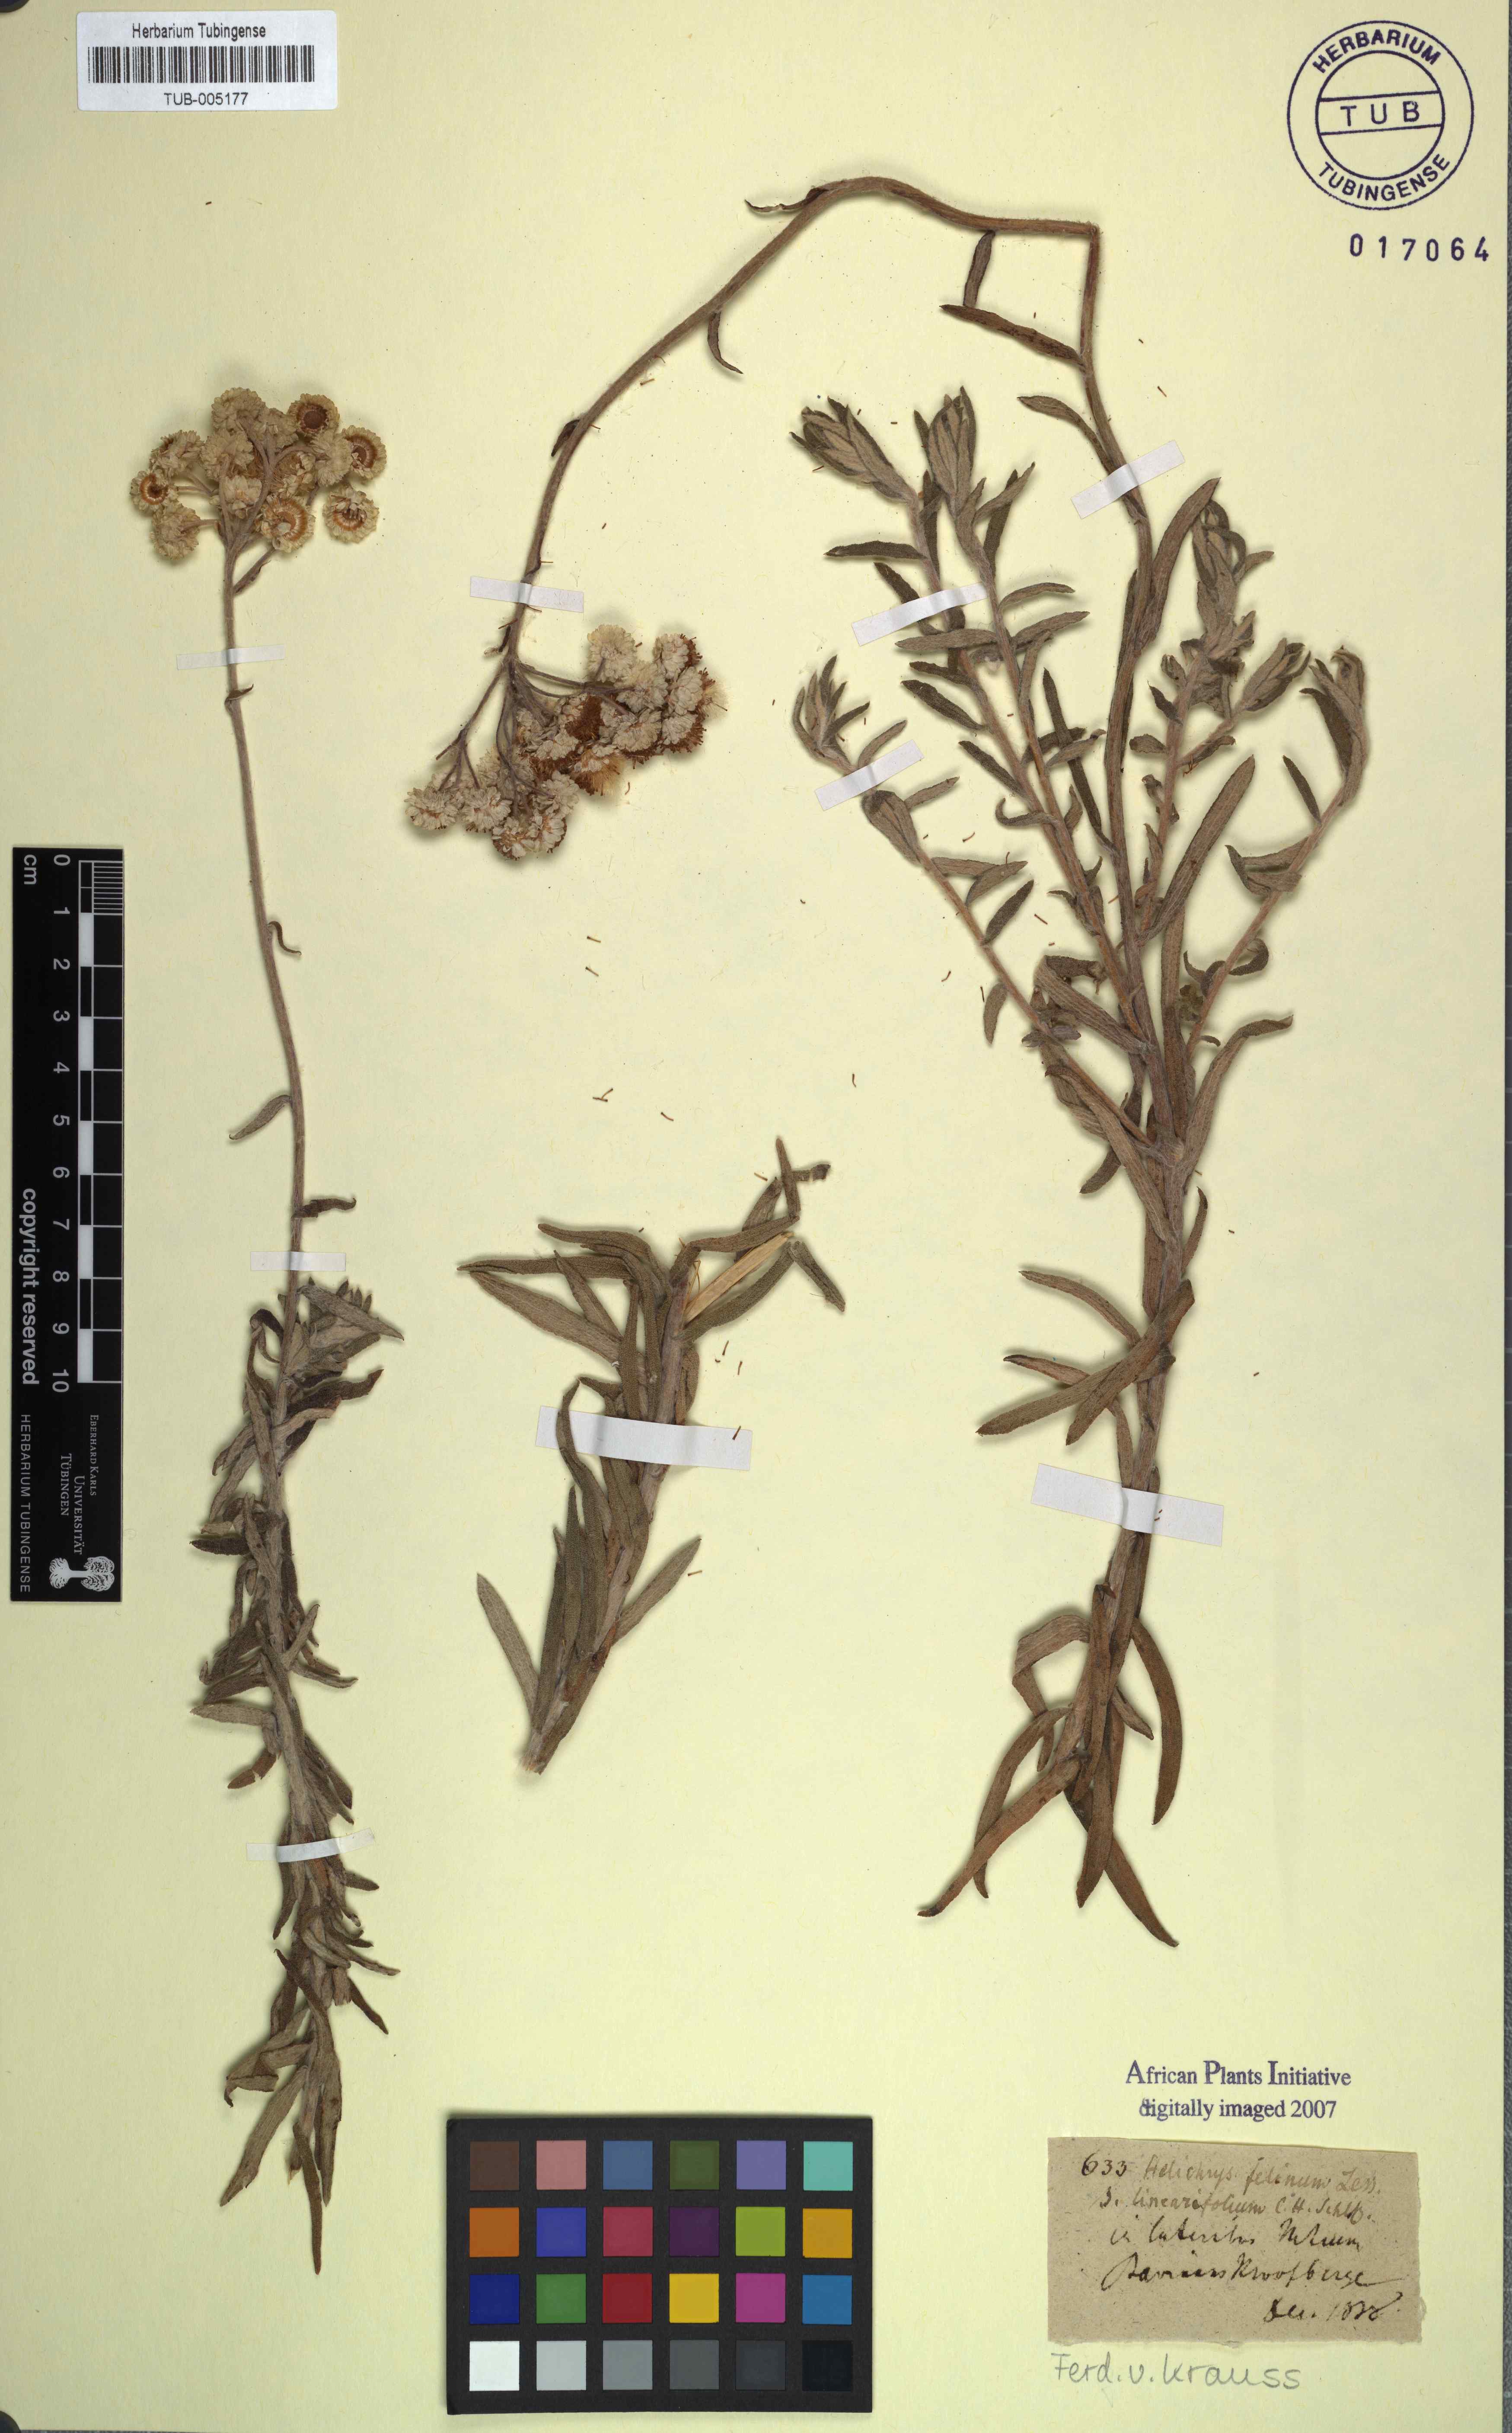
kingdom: Plantae
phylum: Tracheophyta
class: Magnoliopsida
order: Asterales
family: Asteraceae
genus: Helichrysum
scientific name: Helichrysum felinum
